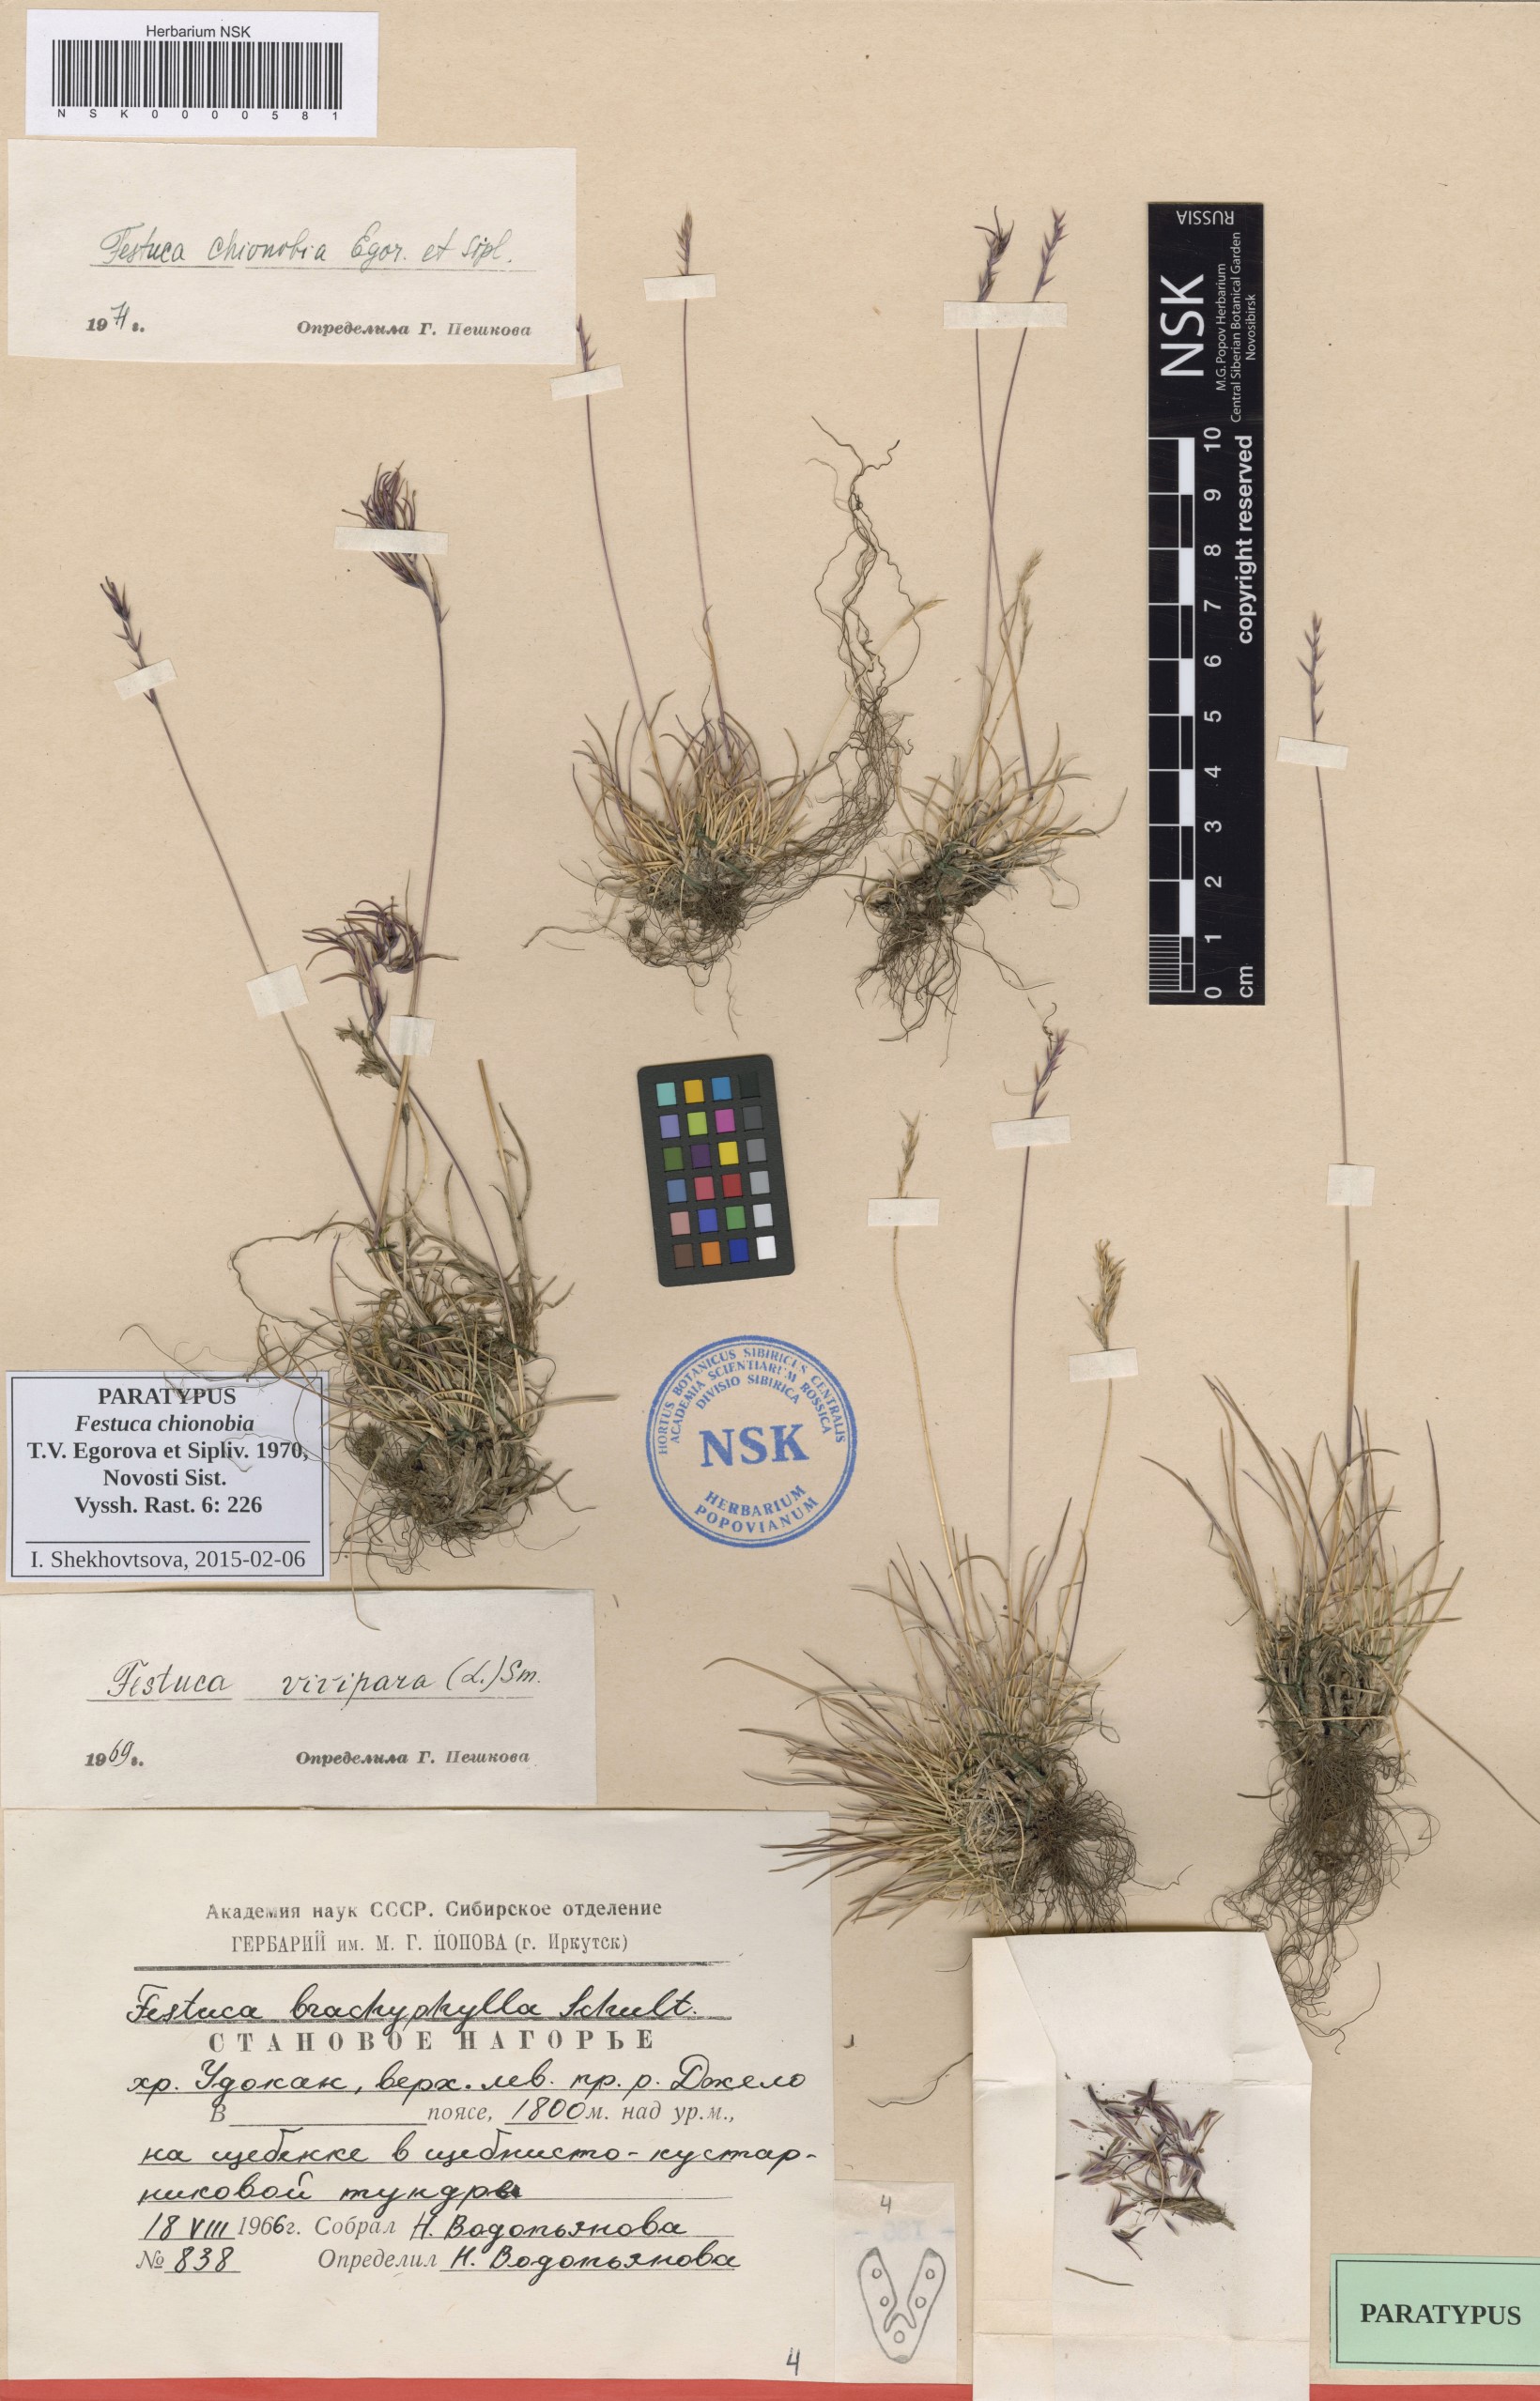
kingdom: Plantae
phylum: Tracheophyta
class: Liliopsida
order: Poales
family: Poaceae
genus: Festuca
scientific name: Festuca auriculata
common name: Eared fescue
